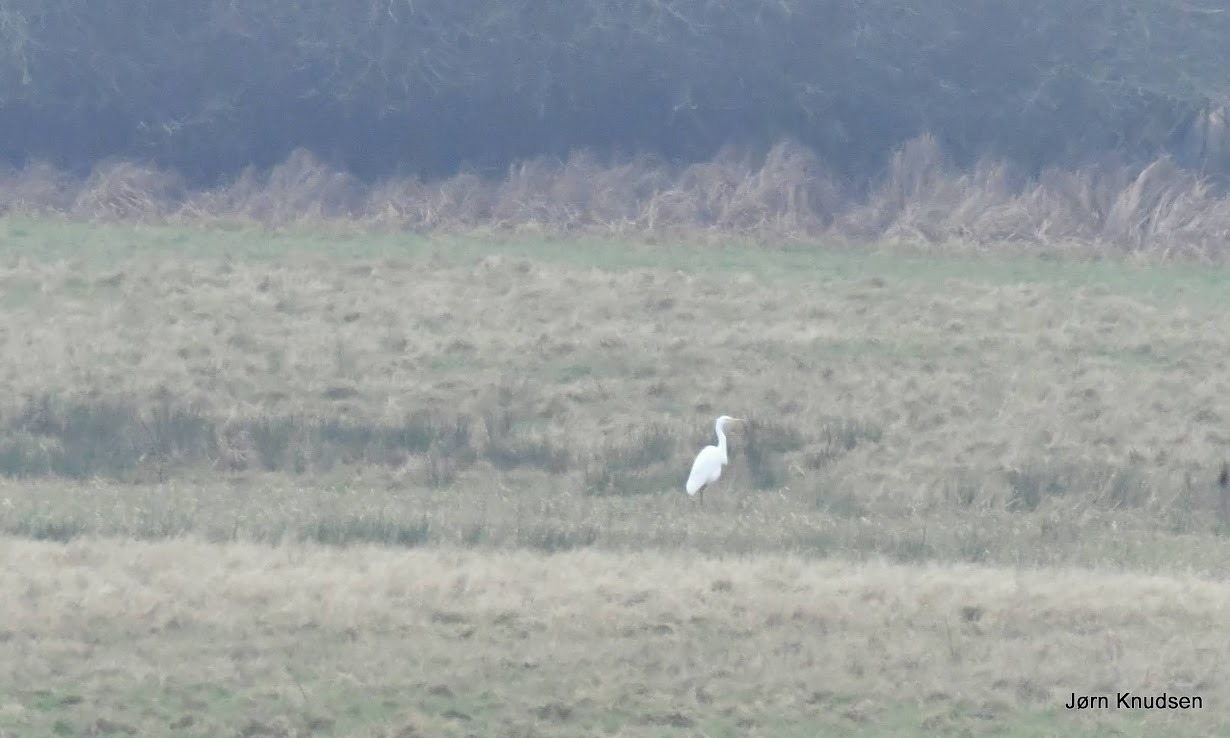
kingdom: Animalia
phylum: Chordata
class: Aves
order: Pelecaniformes
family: Ardeidae
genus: Ardea
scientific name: Ardea alba
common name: Sølvhejre
